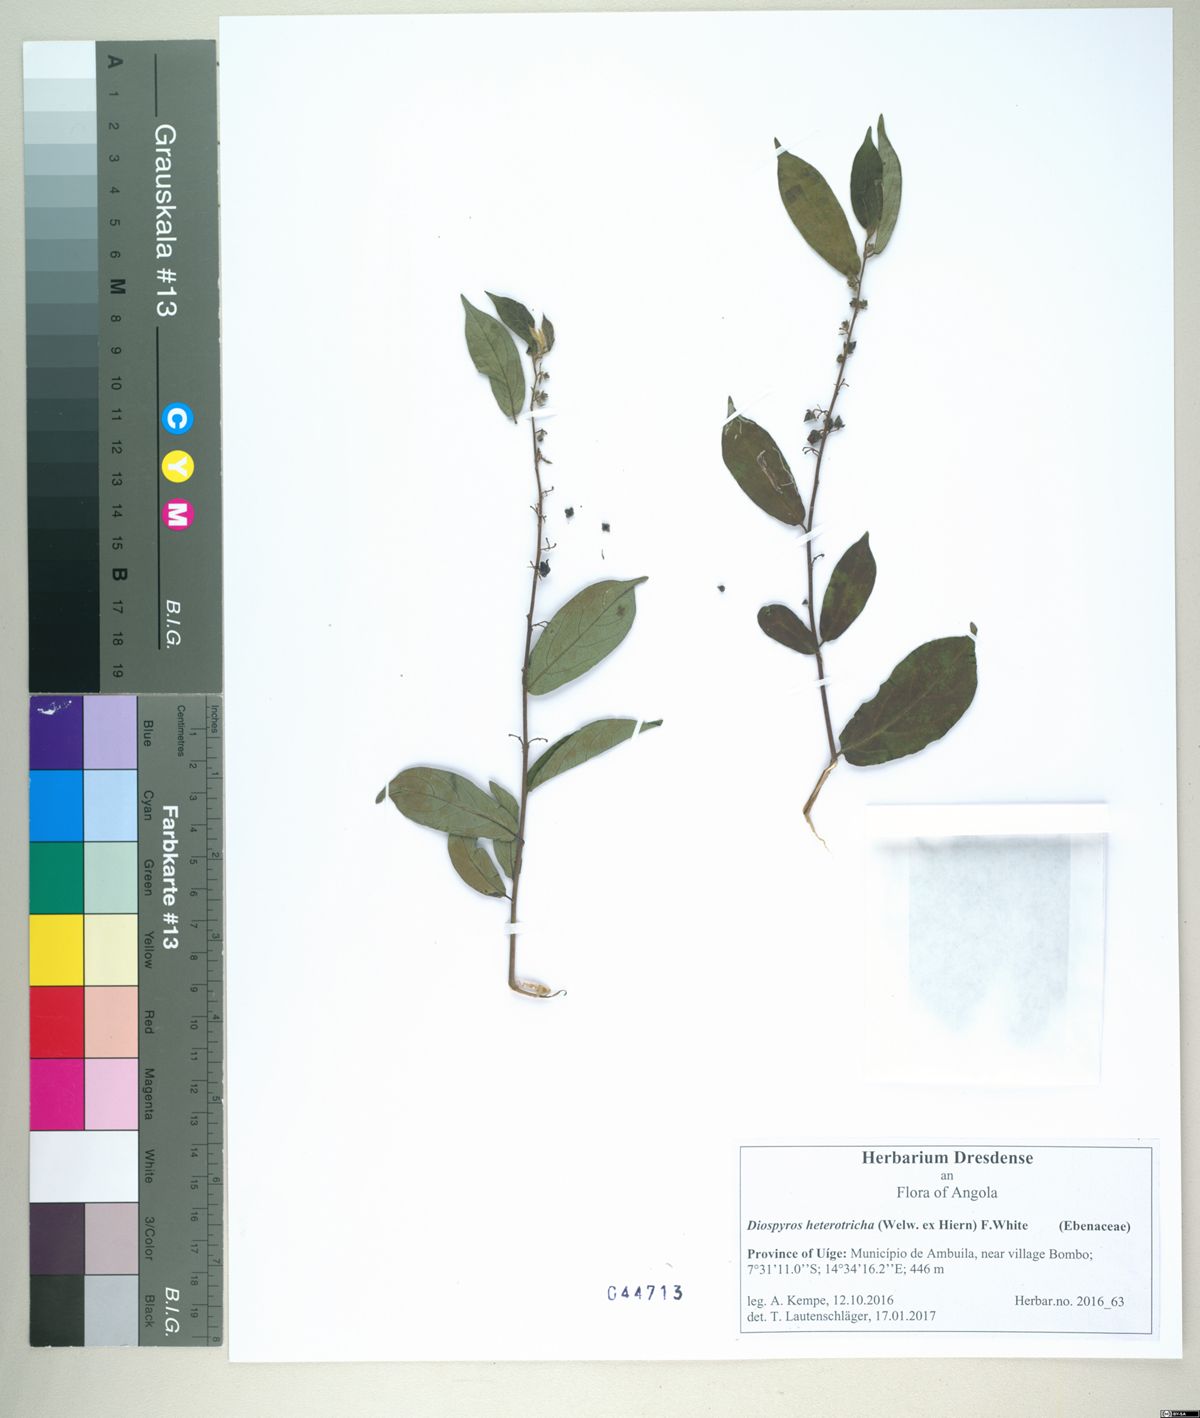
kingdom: Plantae
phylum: Tracheophyta
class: Magnoliopsida
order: Ericales
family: Ebenaceae
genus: Diospyros
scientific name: Diospyros heterotricha
